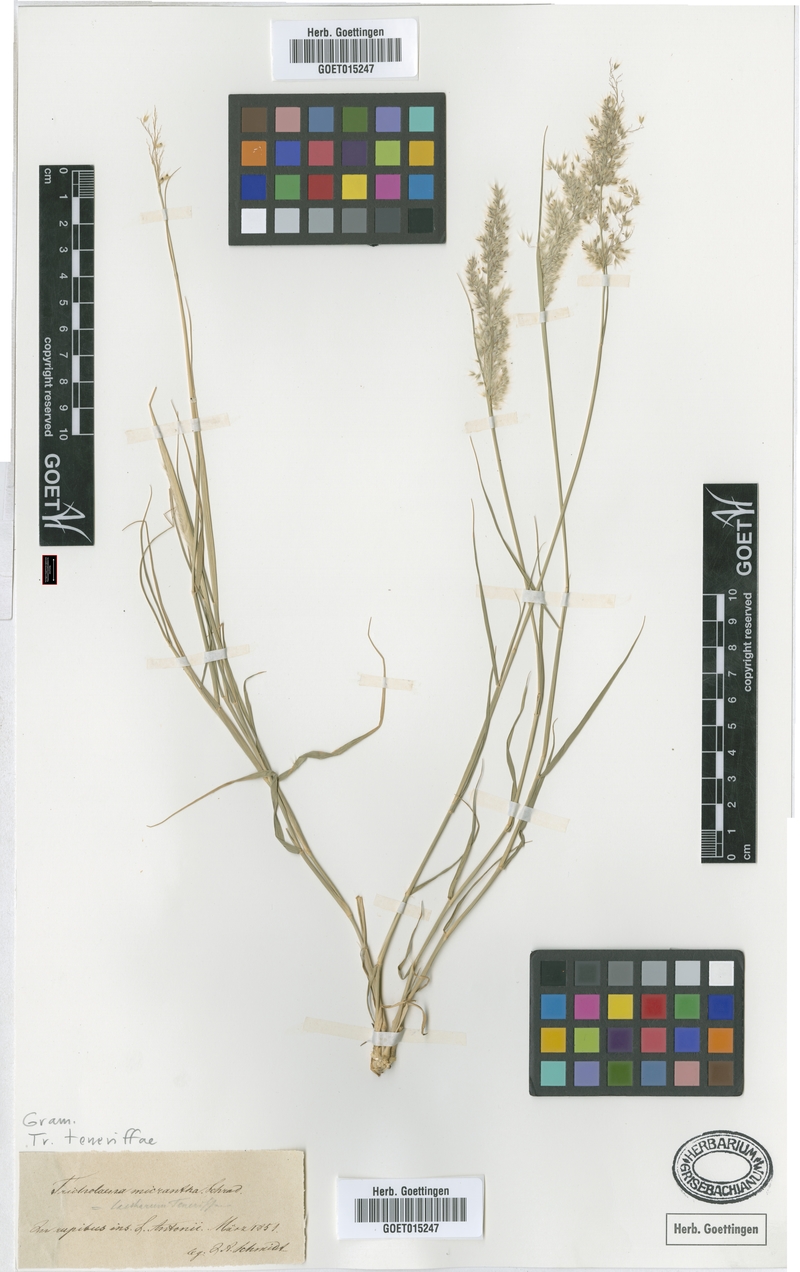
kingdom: Plantae
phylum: Tracheophyta
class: Liliopsida
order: Poales
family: Poaceae
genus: Tricholaena
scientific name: Tricholaena teneriffae
